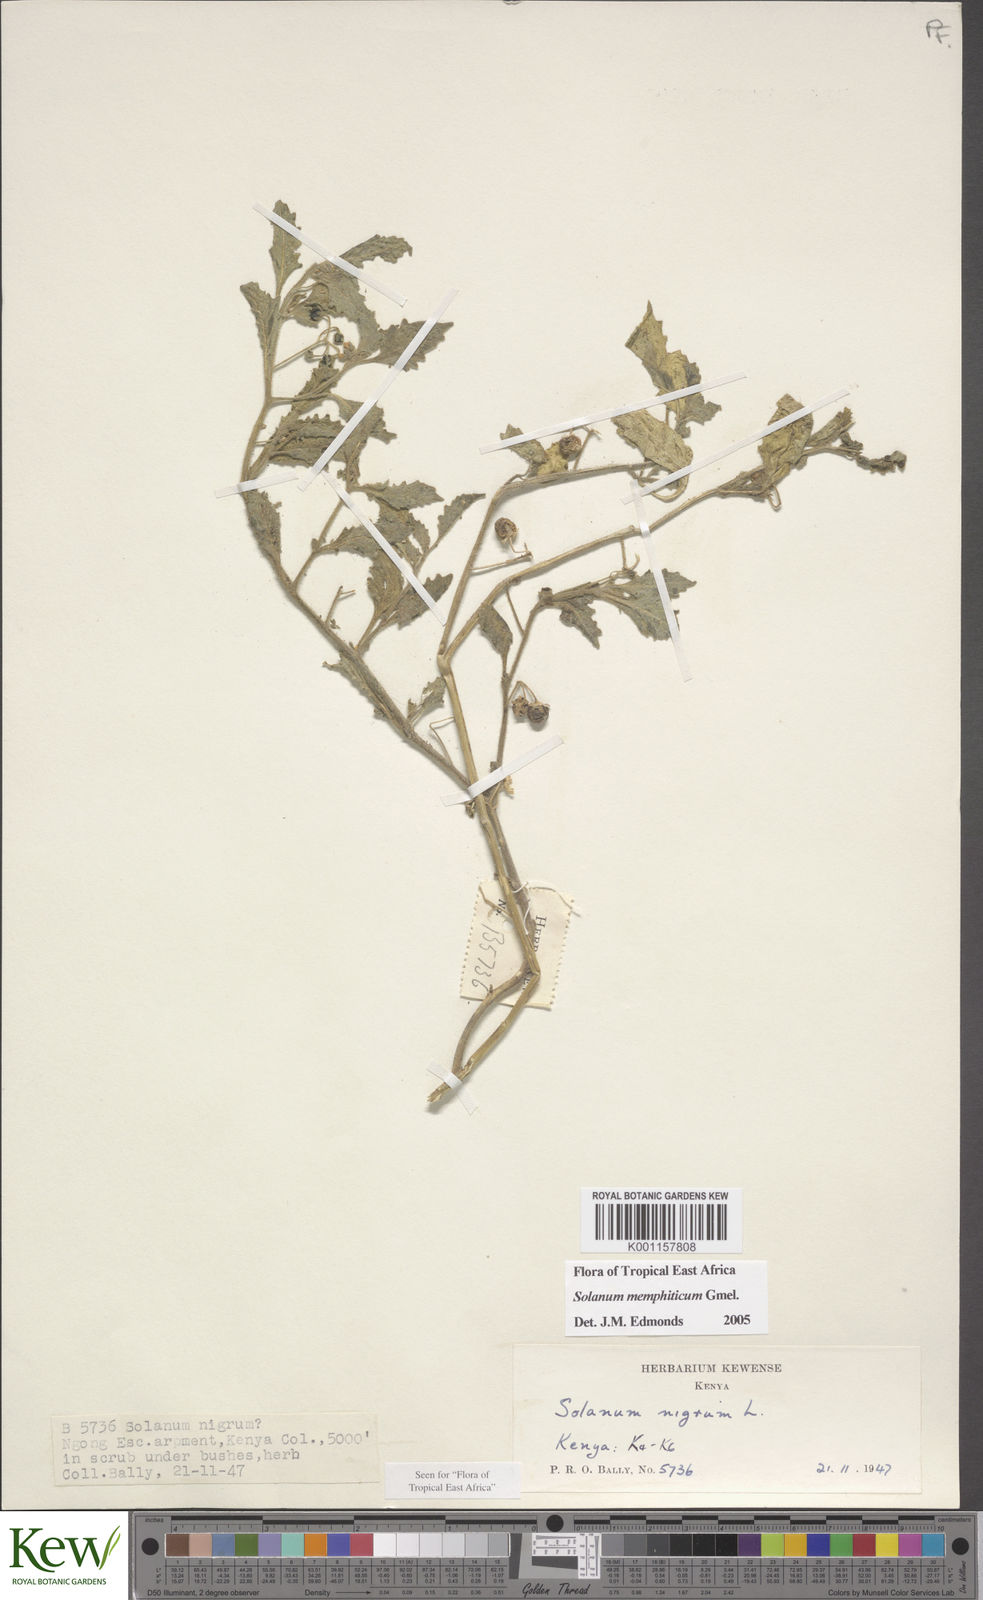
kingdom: Plantae
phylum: Tracheophyta
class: Magnoliopsida
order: Solanales
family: Solanaceae
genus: Solanum
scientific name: Solanum memphiticum
